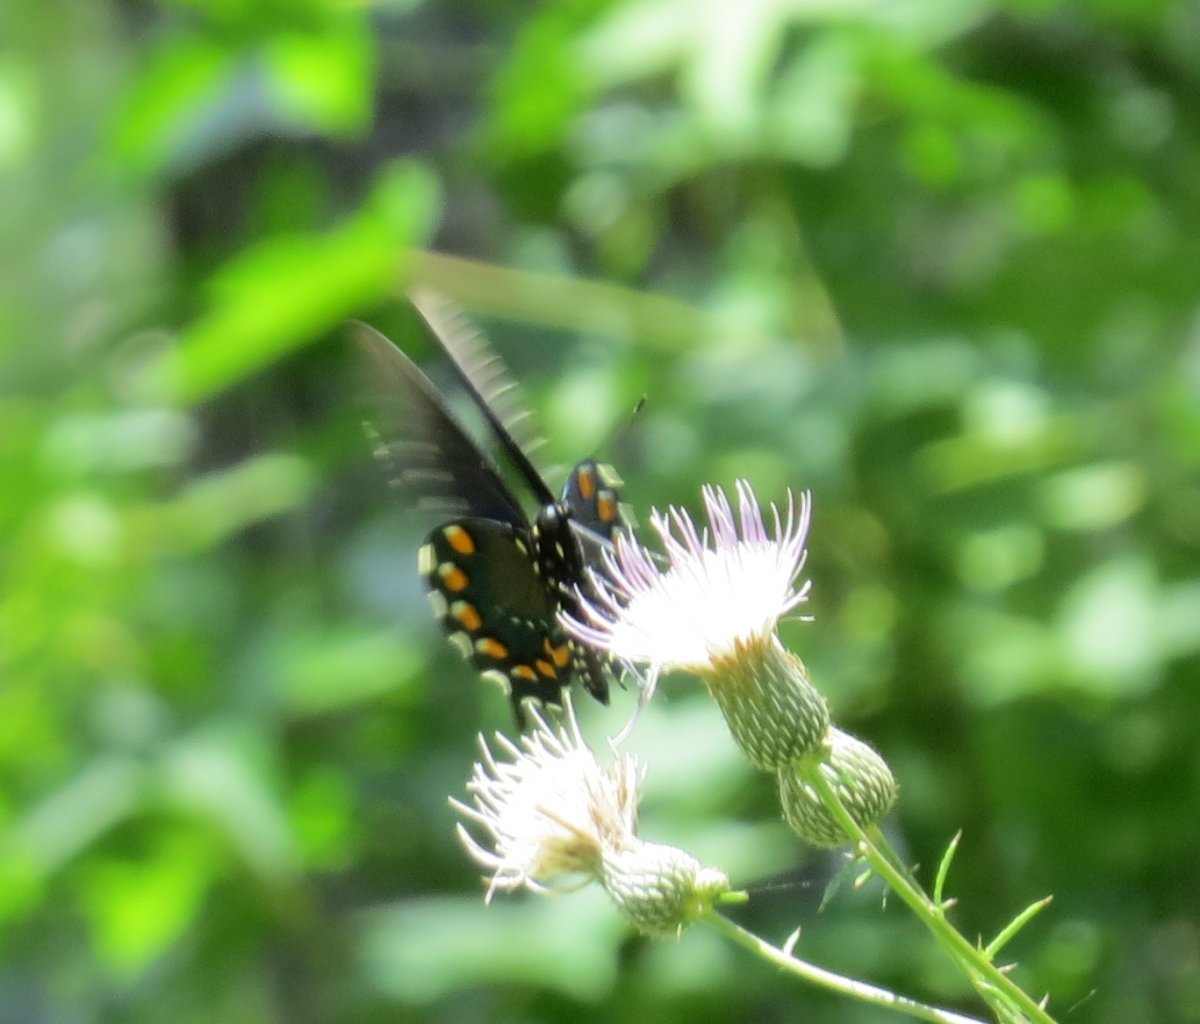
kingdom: Animalia
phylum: Arthropoda
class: Insecta
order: Lepidoptera
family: Papilionidae
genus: Battus
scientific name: Battus philenor
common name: Pipevine Swallowtail
